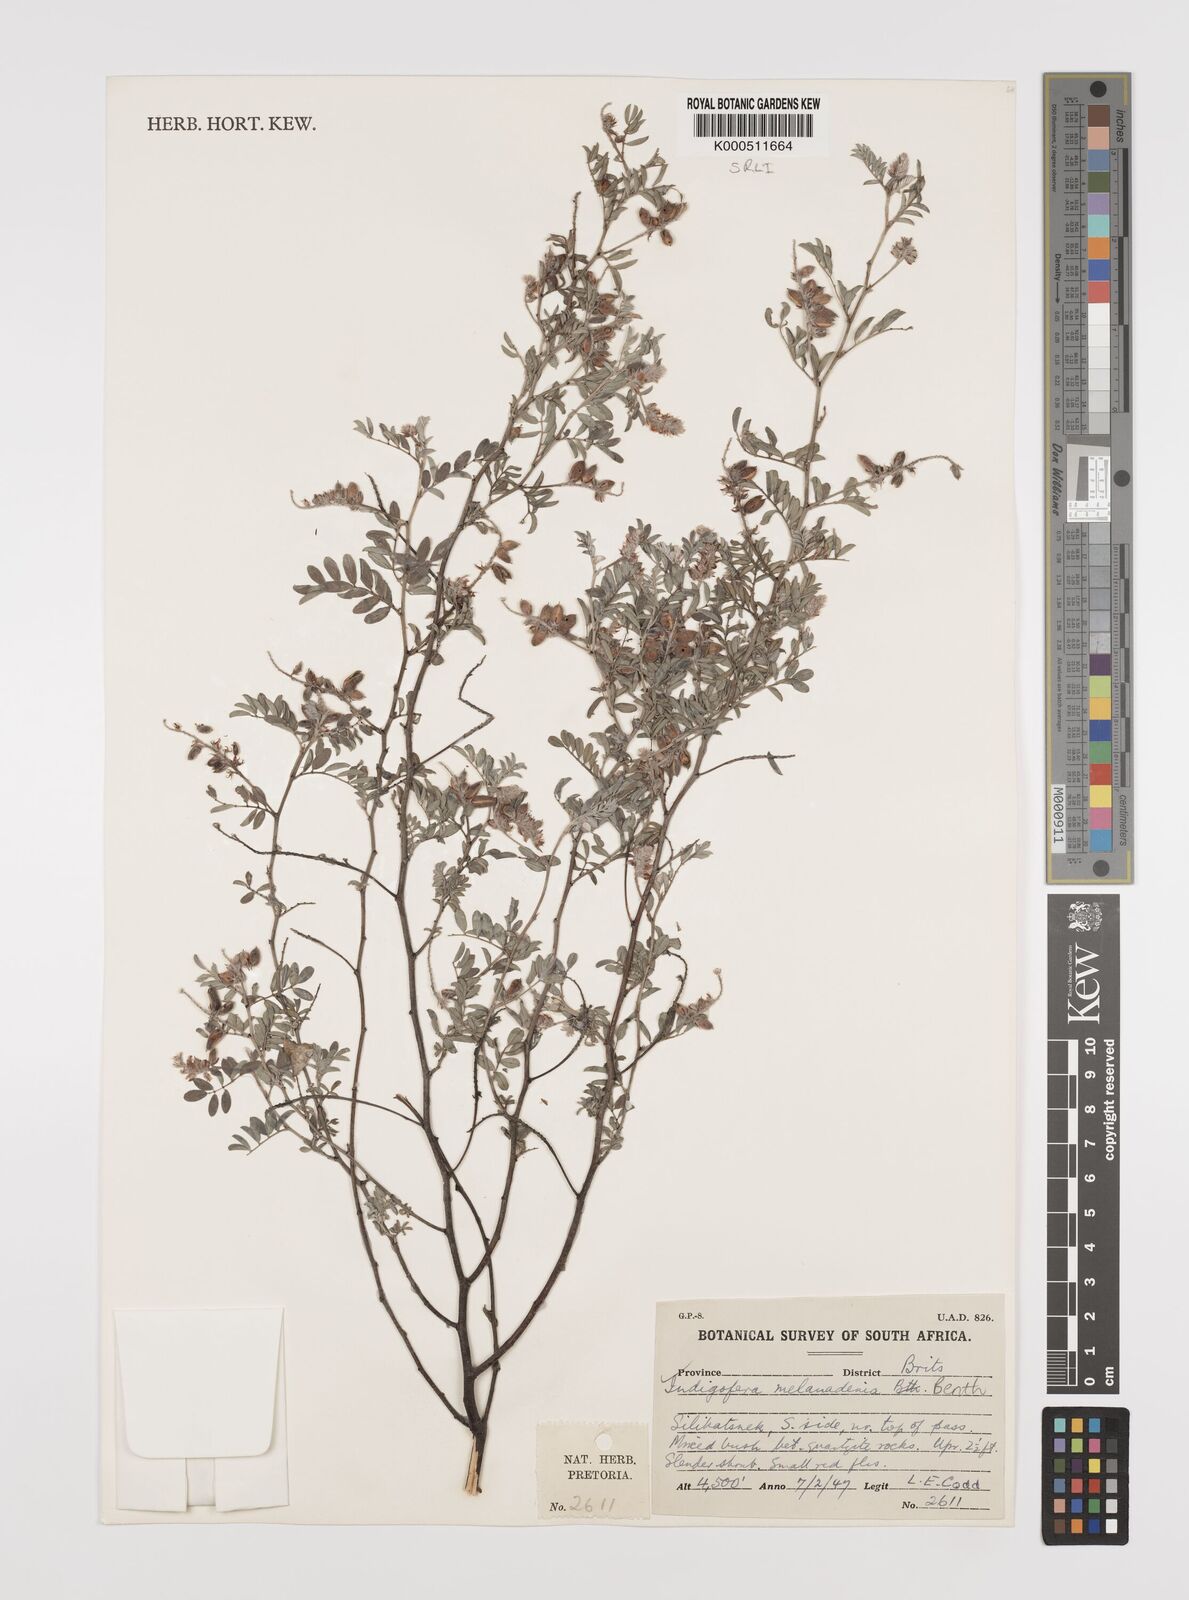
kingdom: Plantae
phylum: Tracheophyta
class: Magnoliopsida
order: Fabales
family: Fabaceae
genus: Indigofera
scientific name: Indigofera melanadenia
